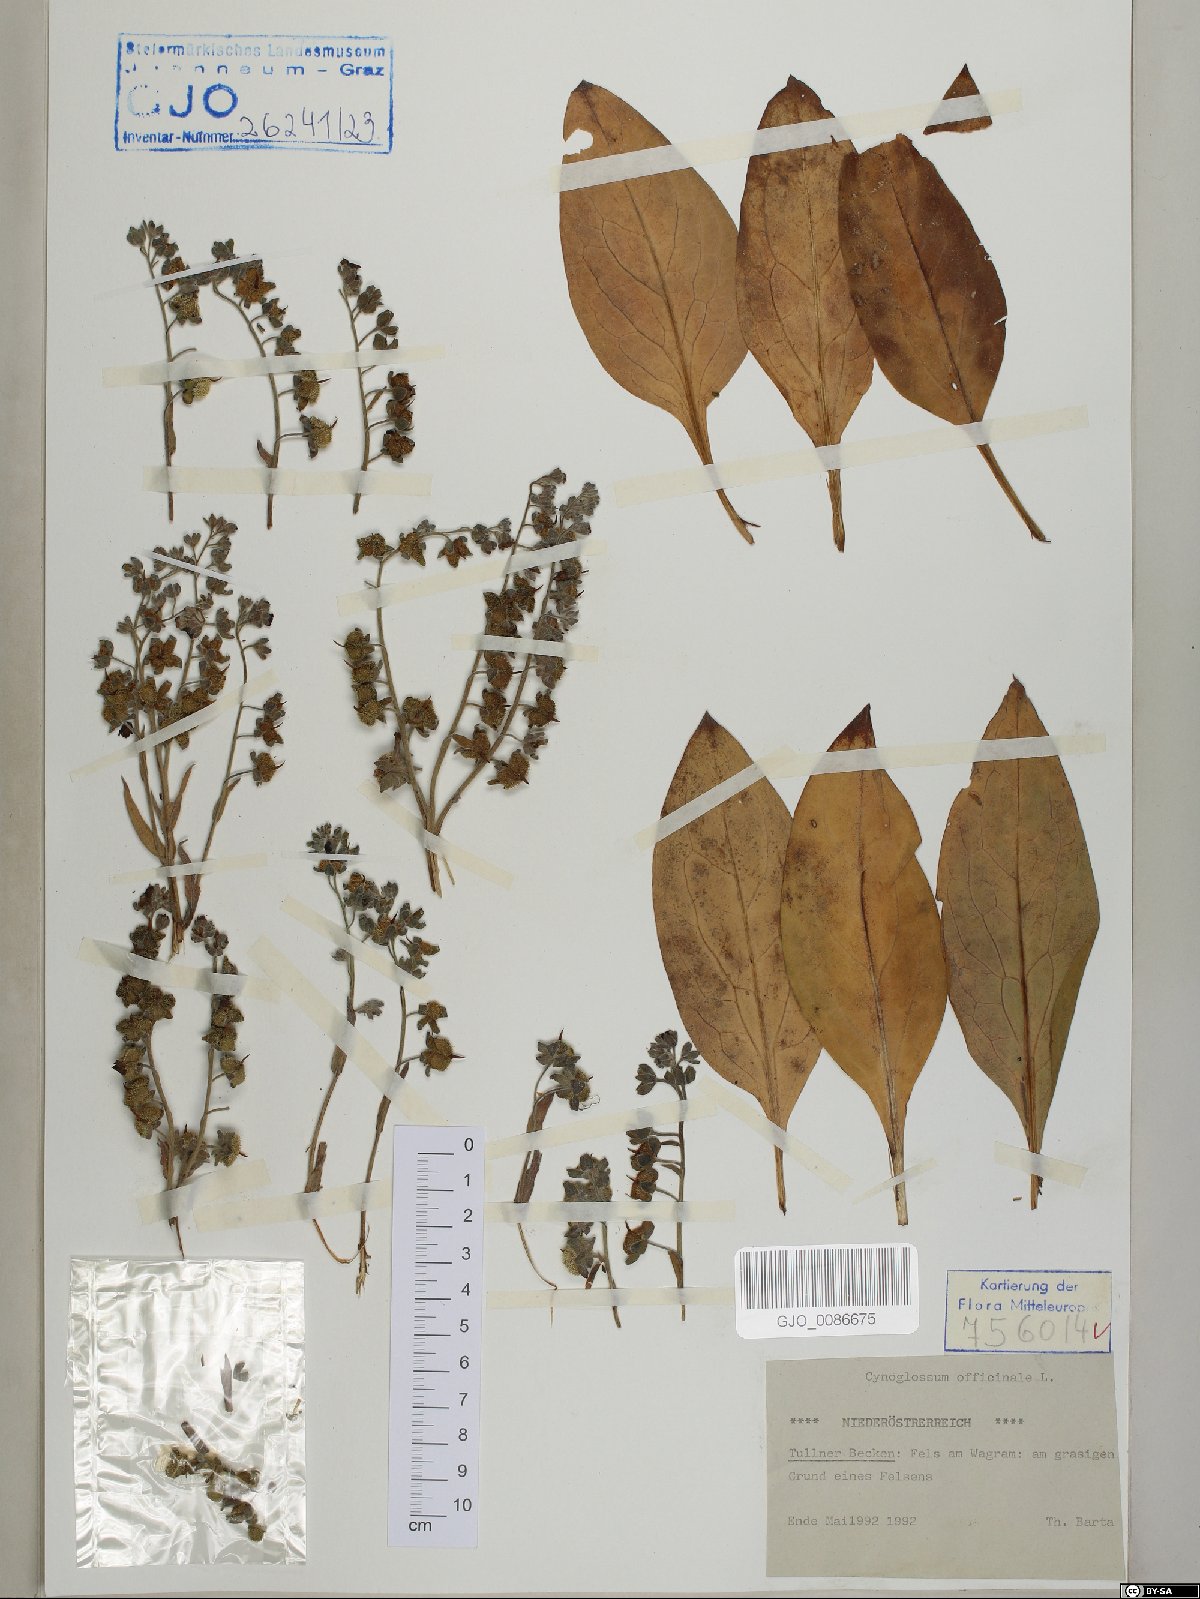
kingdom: Plantae
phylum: Tracheophyta
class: Magnoliopsida
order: Boraginales
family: Boraginaceae
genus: Cynoglossum
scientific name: Cynoglossum officinale
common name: Hound's-tongue
